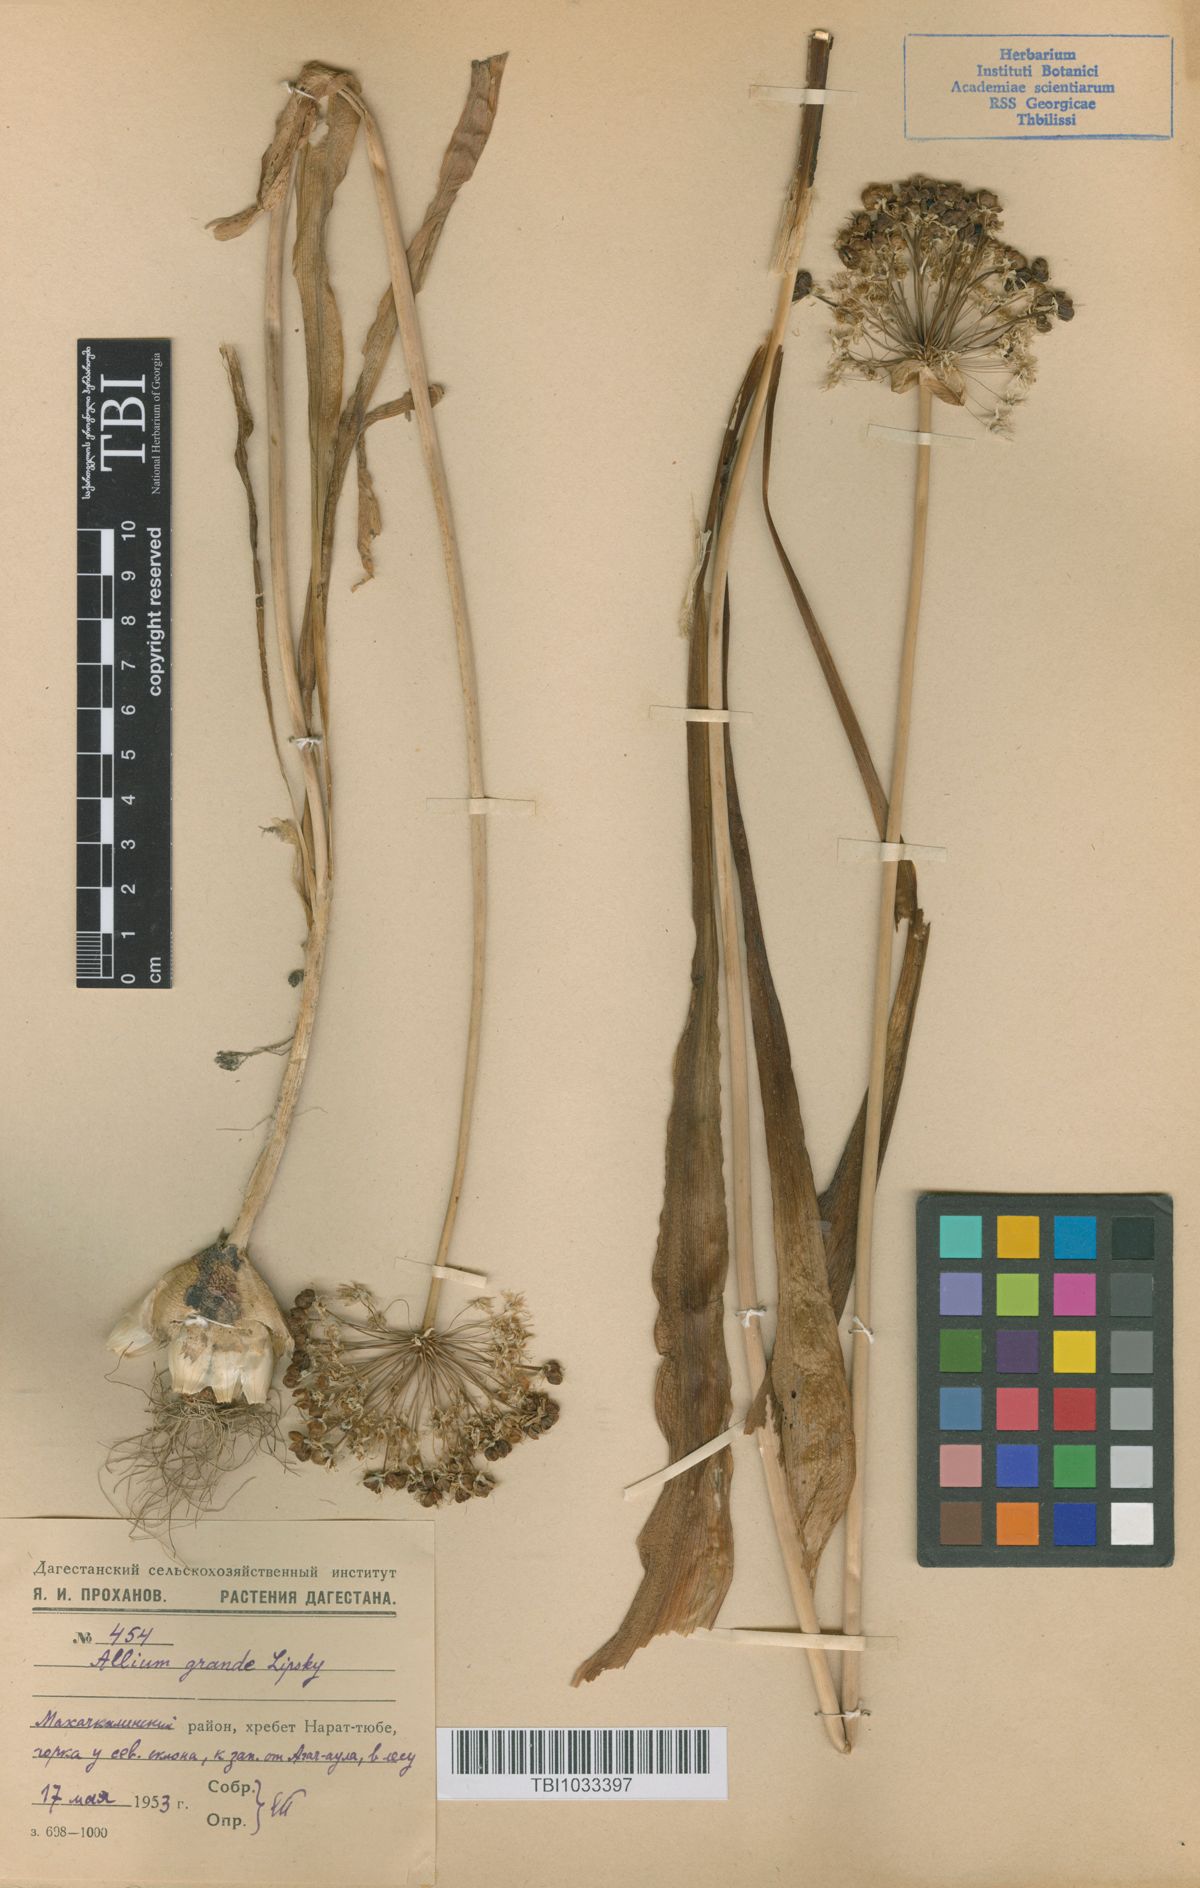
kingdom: Plantae
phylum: Tracheophyta
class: Liliopsida
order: Asparagales
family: Amaryllidaceae
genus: Allium
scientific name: Allium grande
